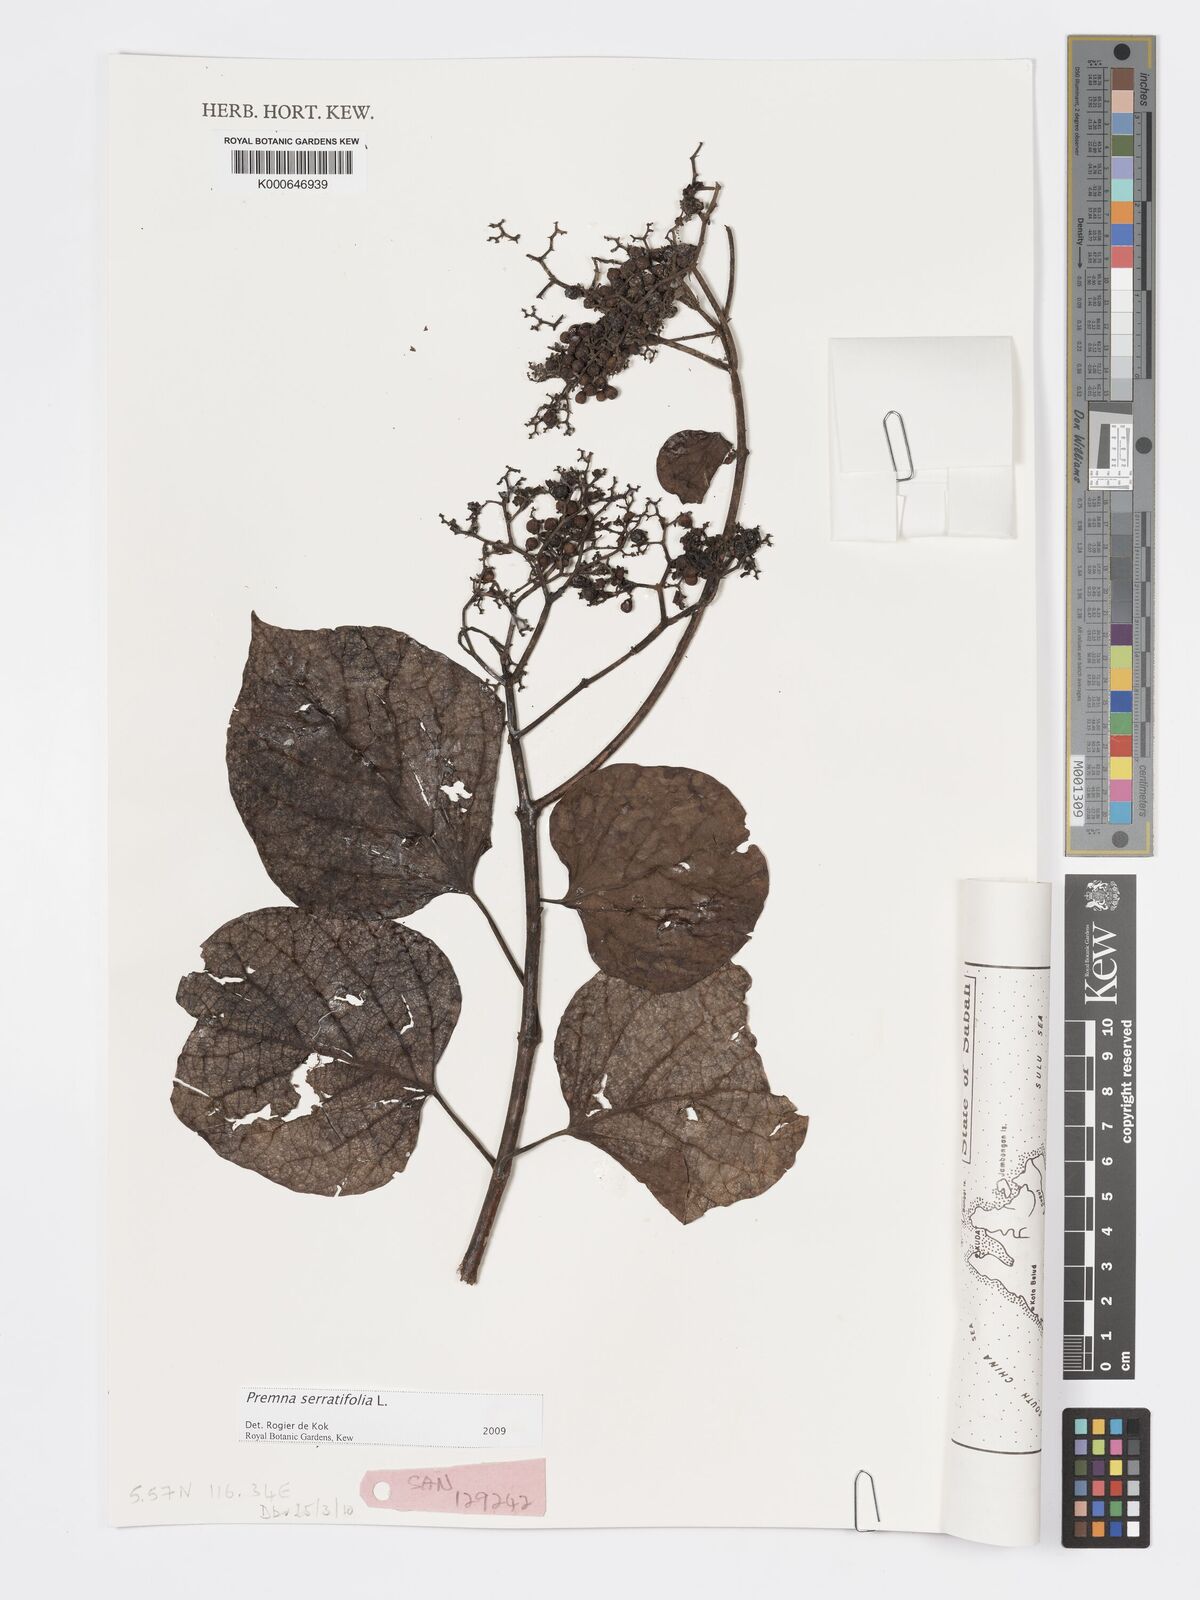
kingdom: Plantae
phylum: Tracheophyta
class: Magnoliopsida
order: Lamiales
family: Lamiaceae
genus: Premna
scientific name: Premna serratifolia
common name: Bastard guelder
